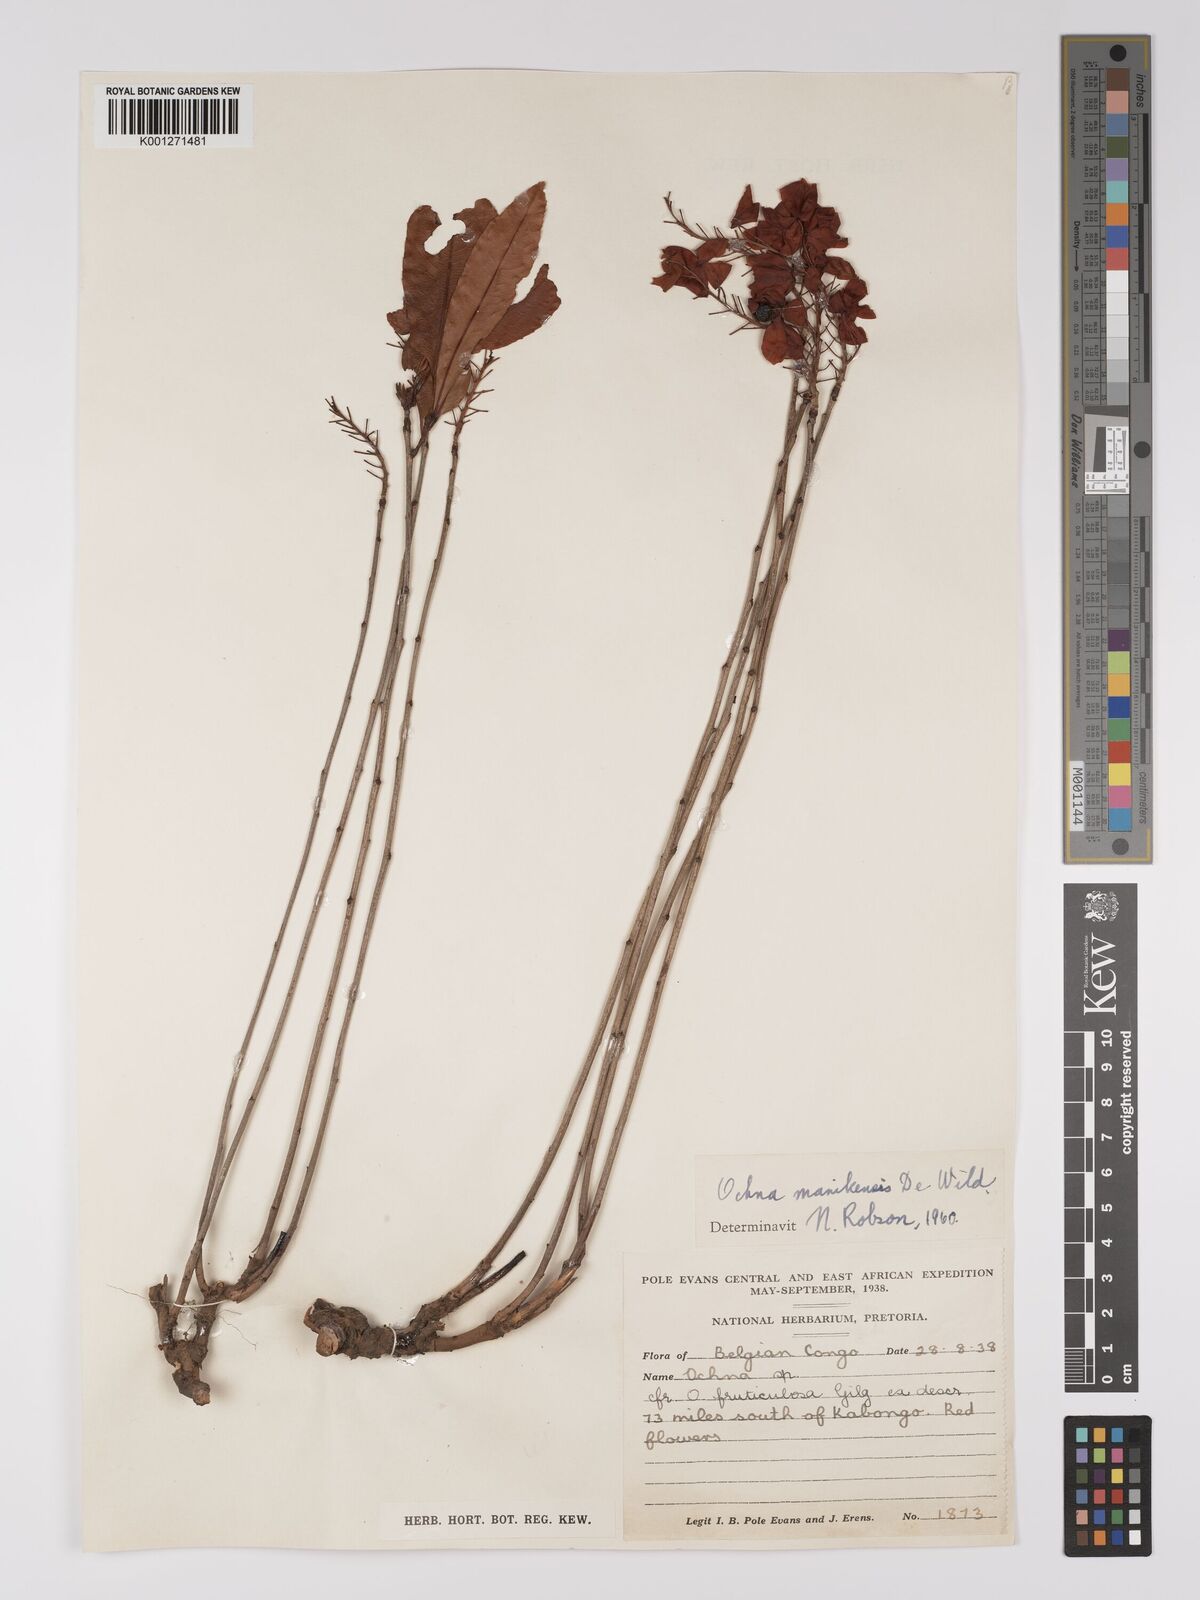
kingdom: Plantae
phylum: Tracheophyta
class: Magnoliopsida
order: Malpighiales
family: Ochnaceae
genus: Ochna
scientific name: Ochna manikensis
